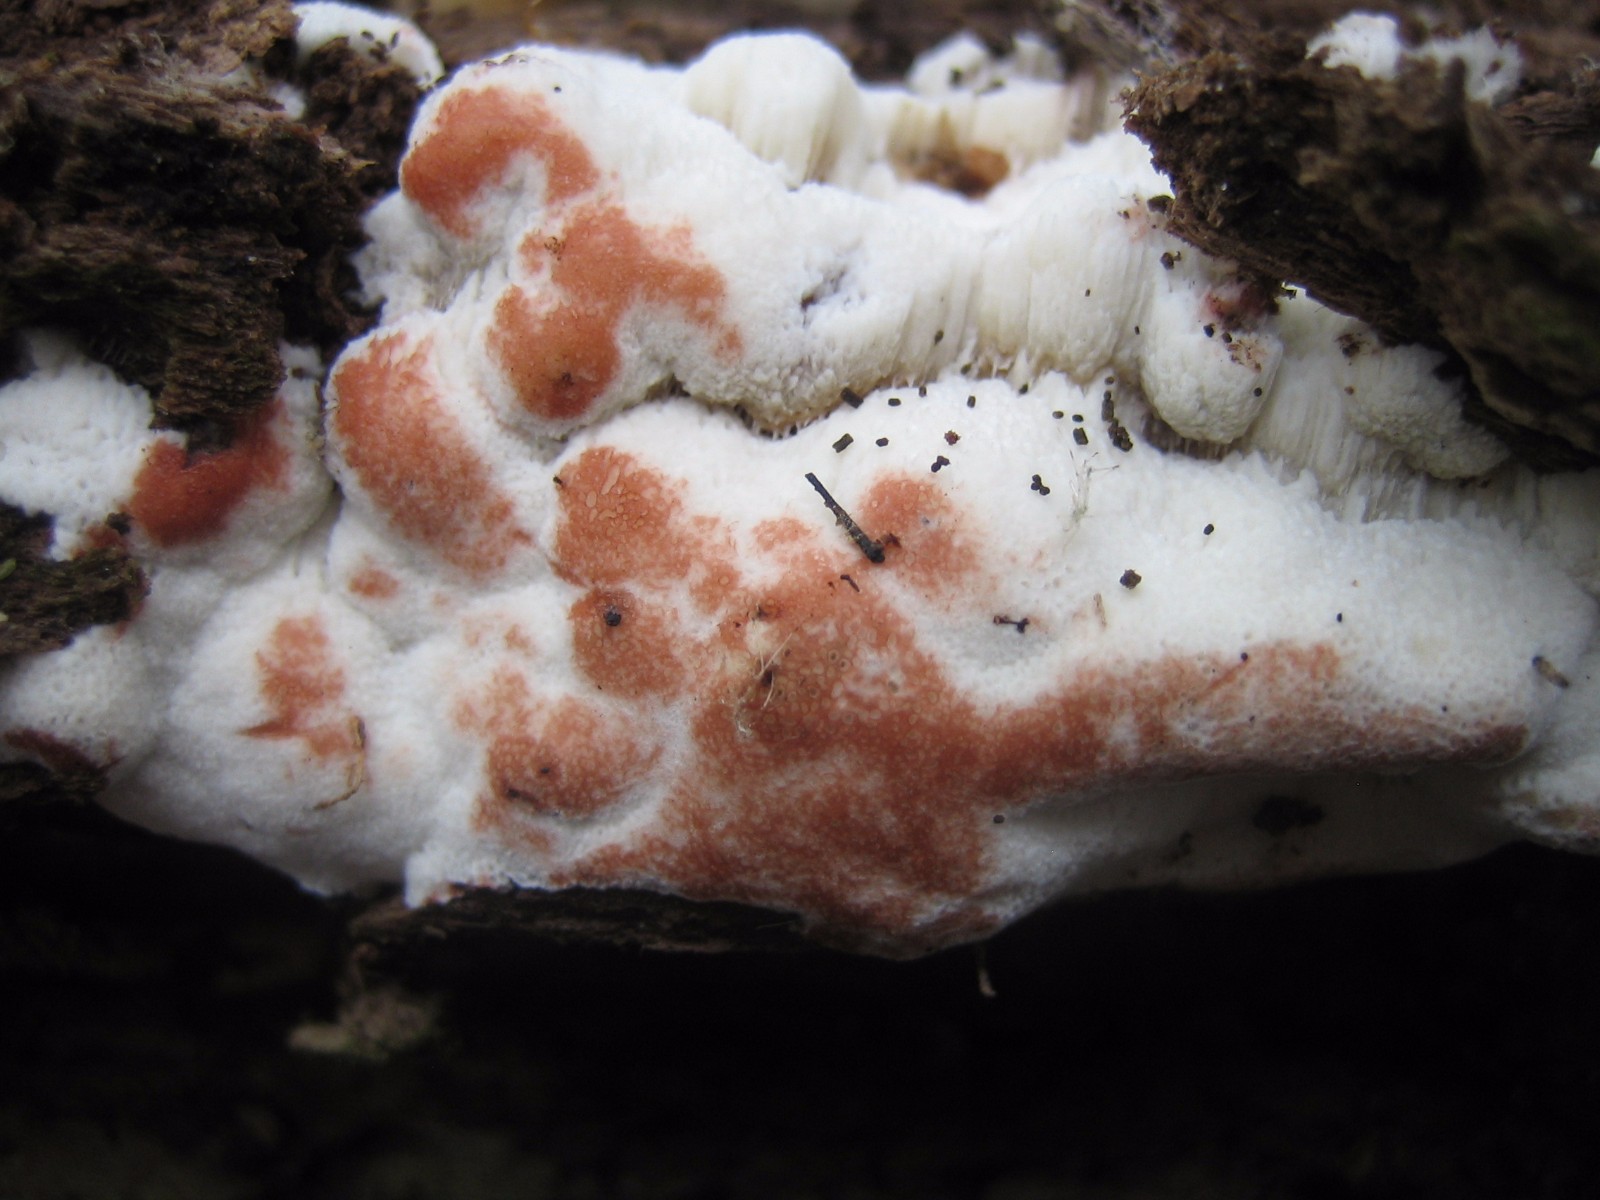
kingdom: Fungi
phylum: Basidiomycota
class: Agaricomycetes
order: Polyporales
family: Meripilaceae
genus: Rigidoporus
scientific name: Rigidoporus sanguinolentus
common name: blod-skorpeporesvamp
